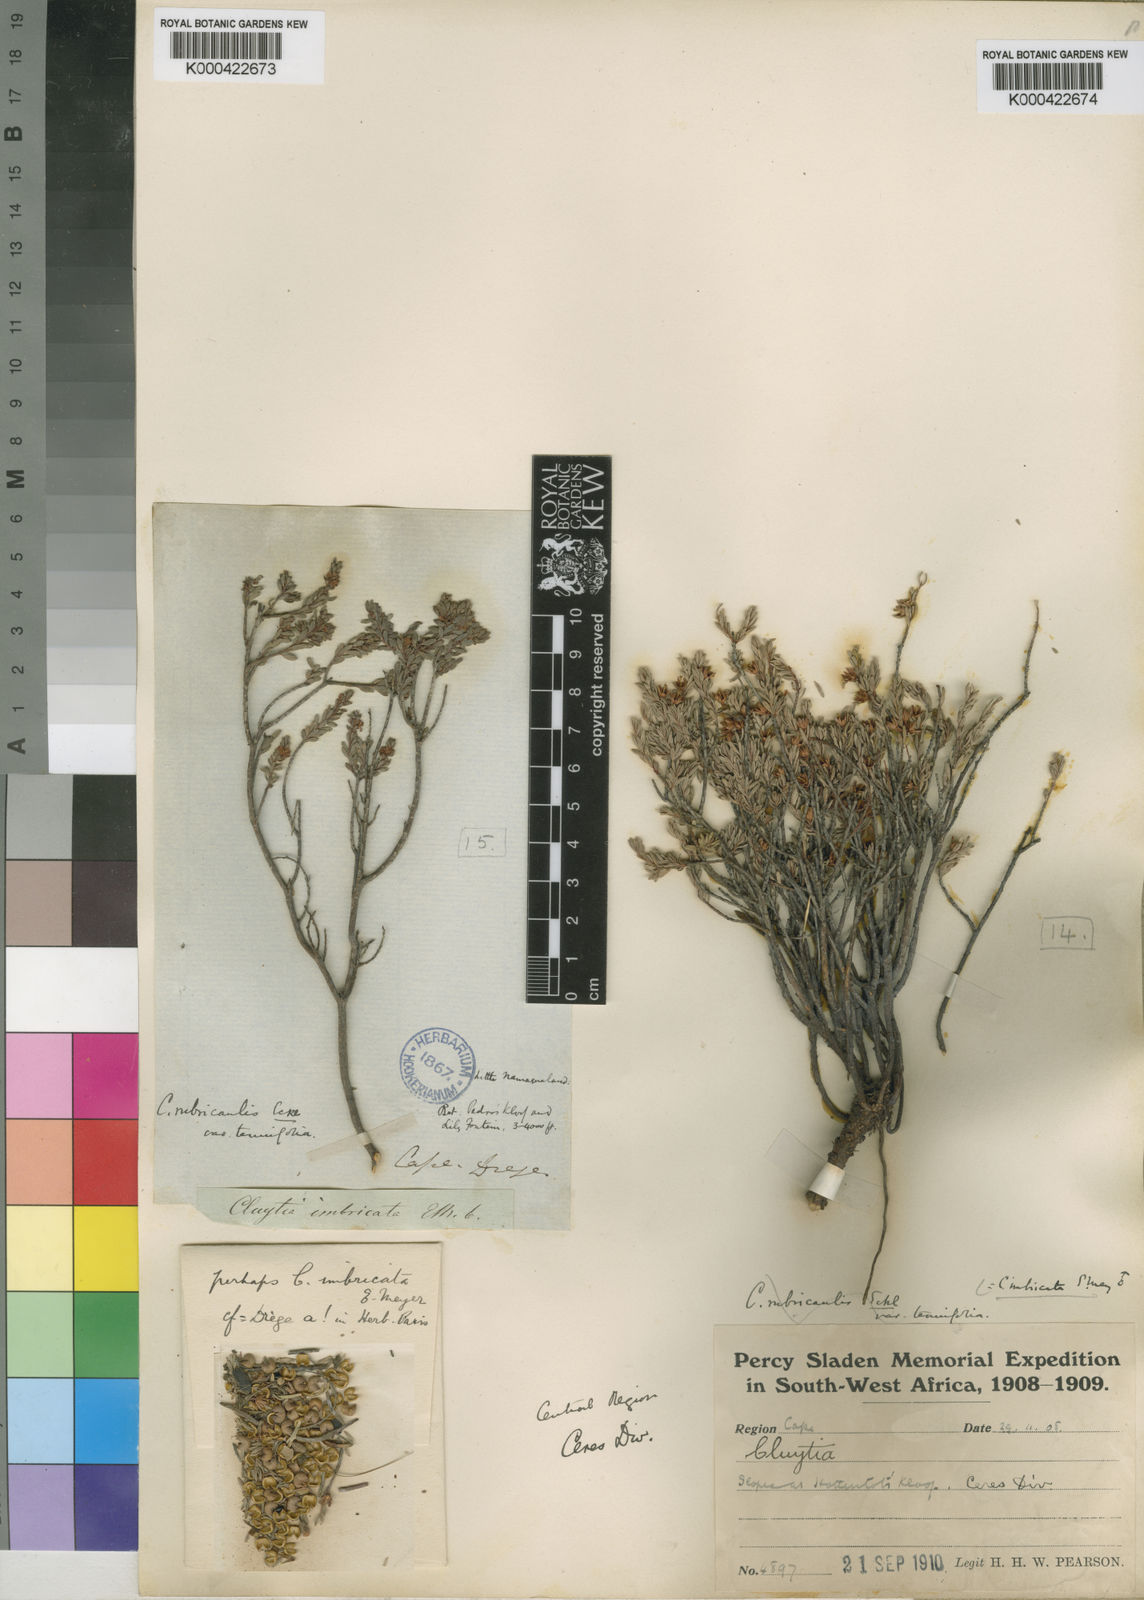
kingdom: Plantae
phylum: Tracheophyta
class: Magnoliopsida
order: Malpighiales
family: Peraceae
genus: Clutia
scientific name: Clutia imbricata
